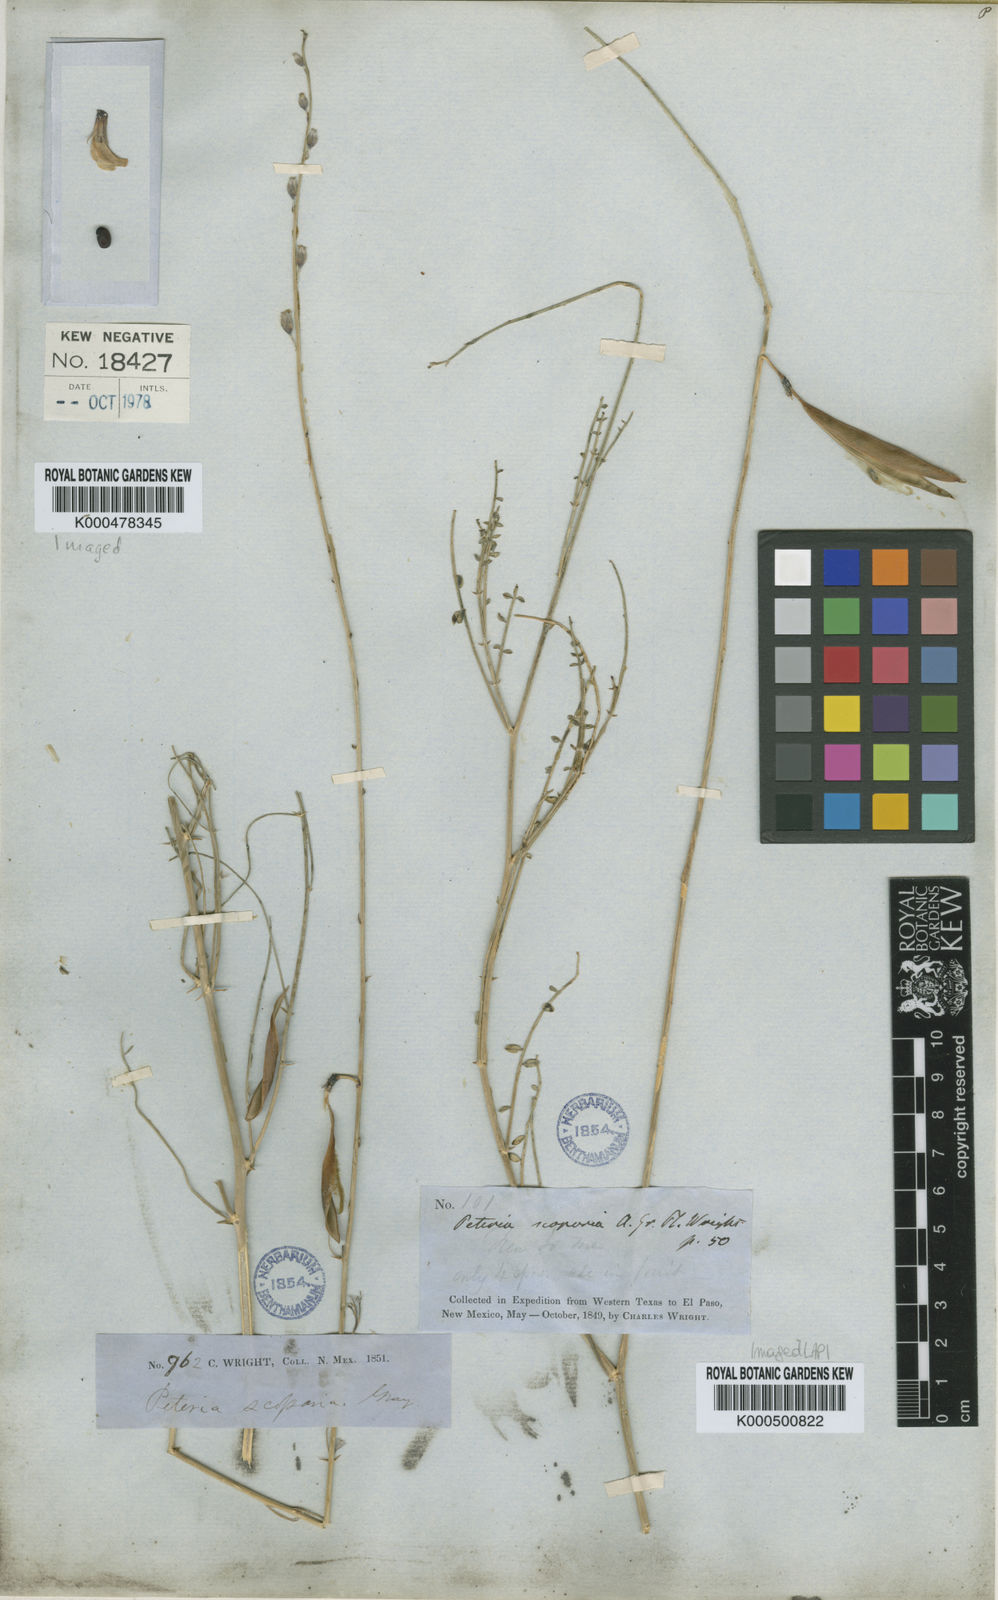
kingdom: Plantae
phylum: Tracheophyta
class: Magnoliopsida
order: Fabales
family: Fabaceae
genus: Peteria
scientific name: Peteria scoparia
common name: Camote del monte
